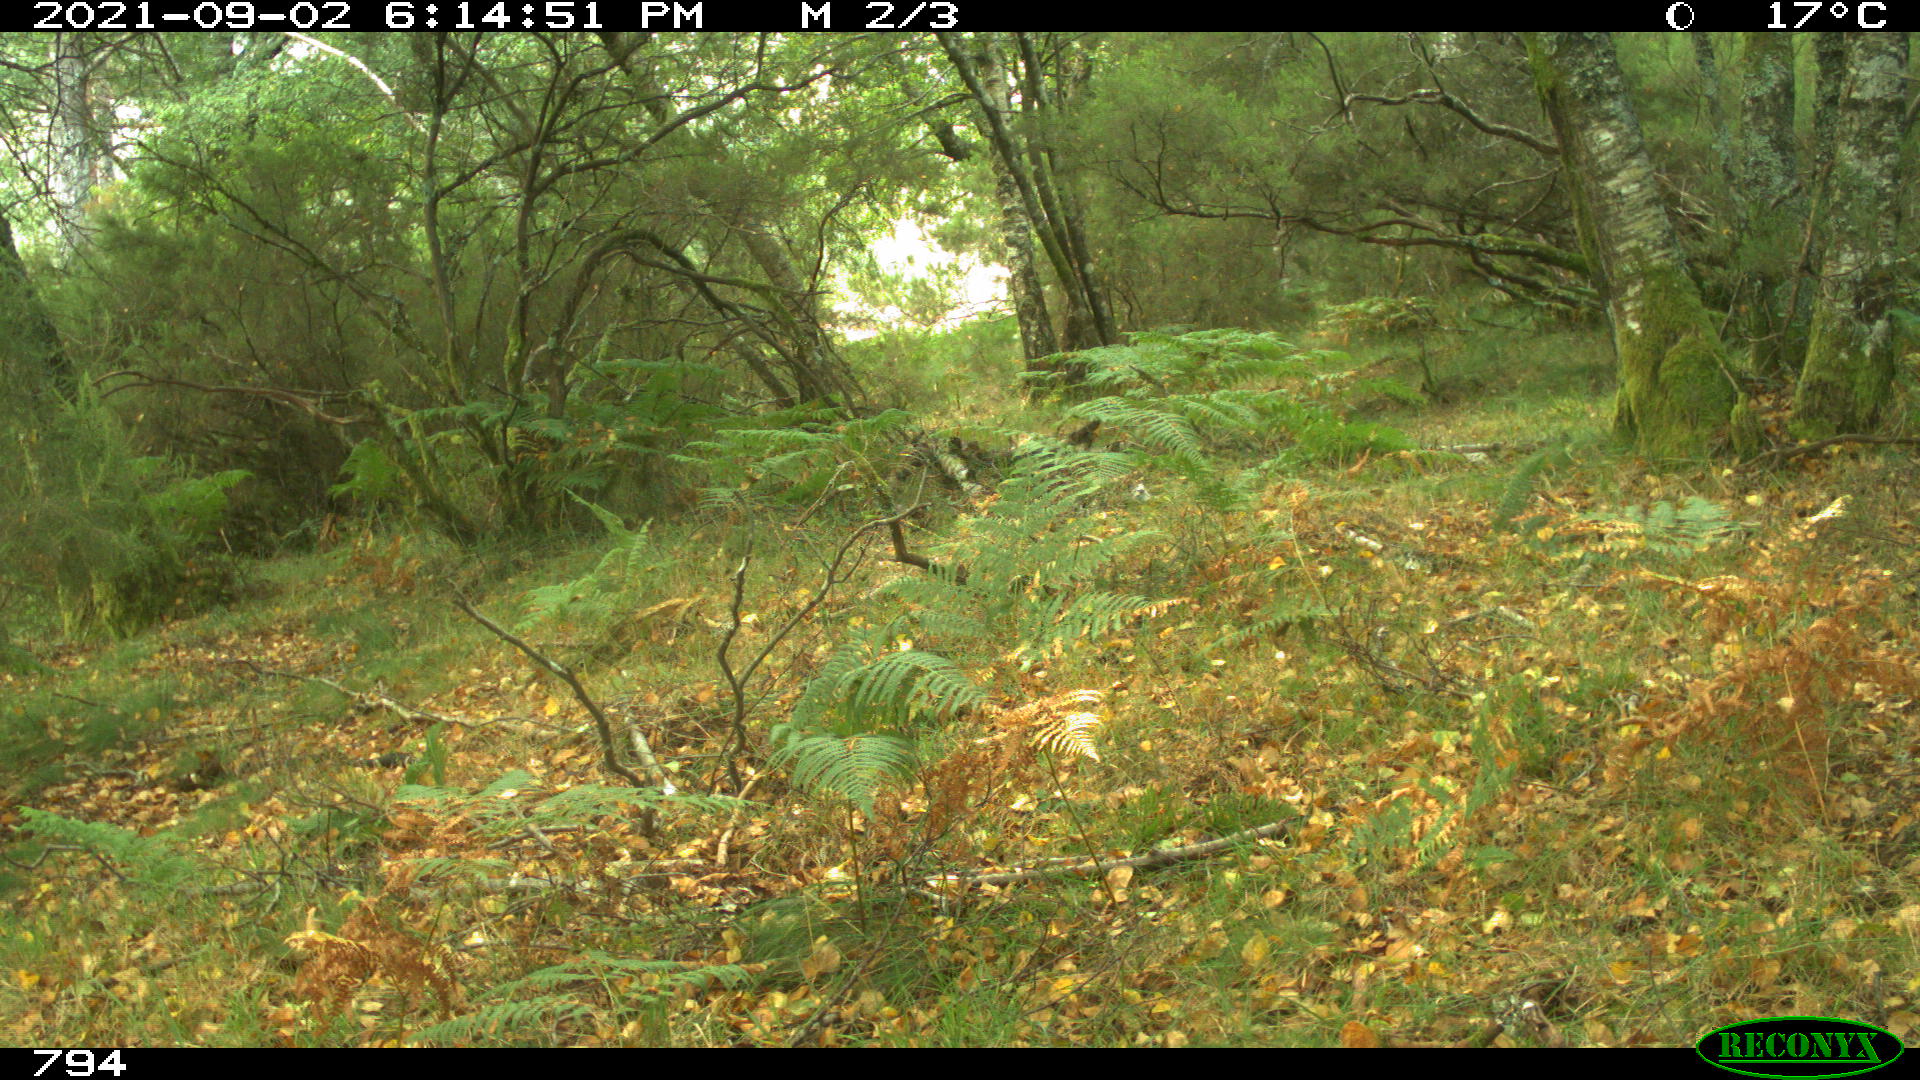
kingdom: Animalia
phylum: Chordata
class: Mammalia
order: Artiodactyla
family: Suidae
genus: Sus
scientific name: Sus scrofa
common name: Wild boar
